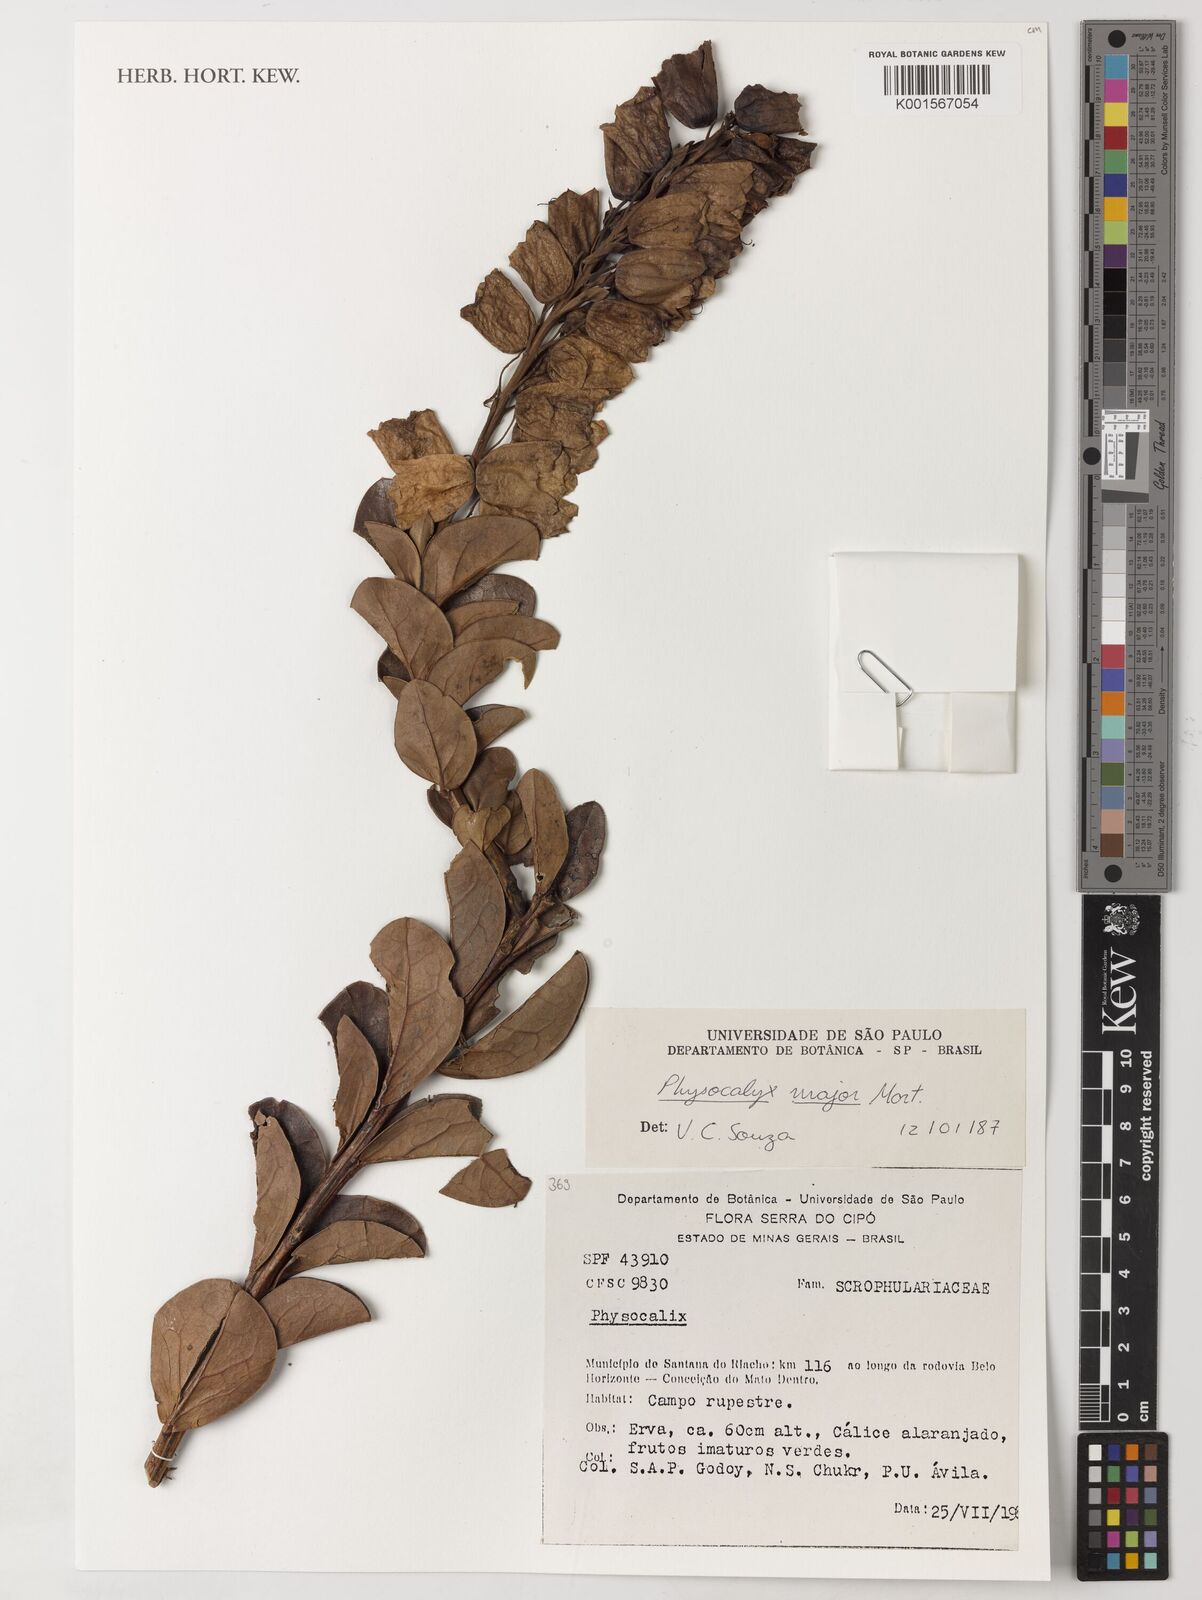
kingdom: Plantae
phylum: Tracheophyta
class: Magnoliopsida
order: Lamiales
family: Orobanchaceae
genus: Physocalyx
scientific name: Physocalyx major
